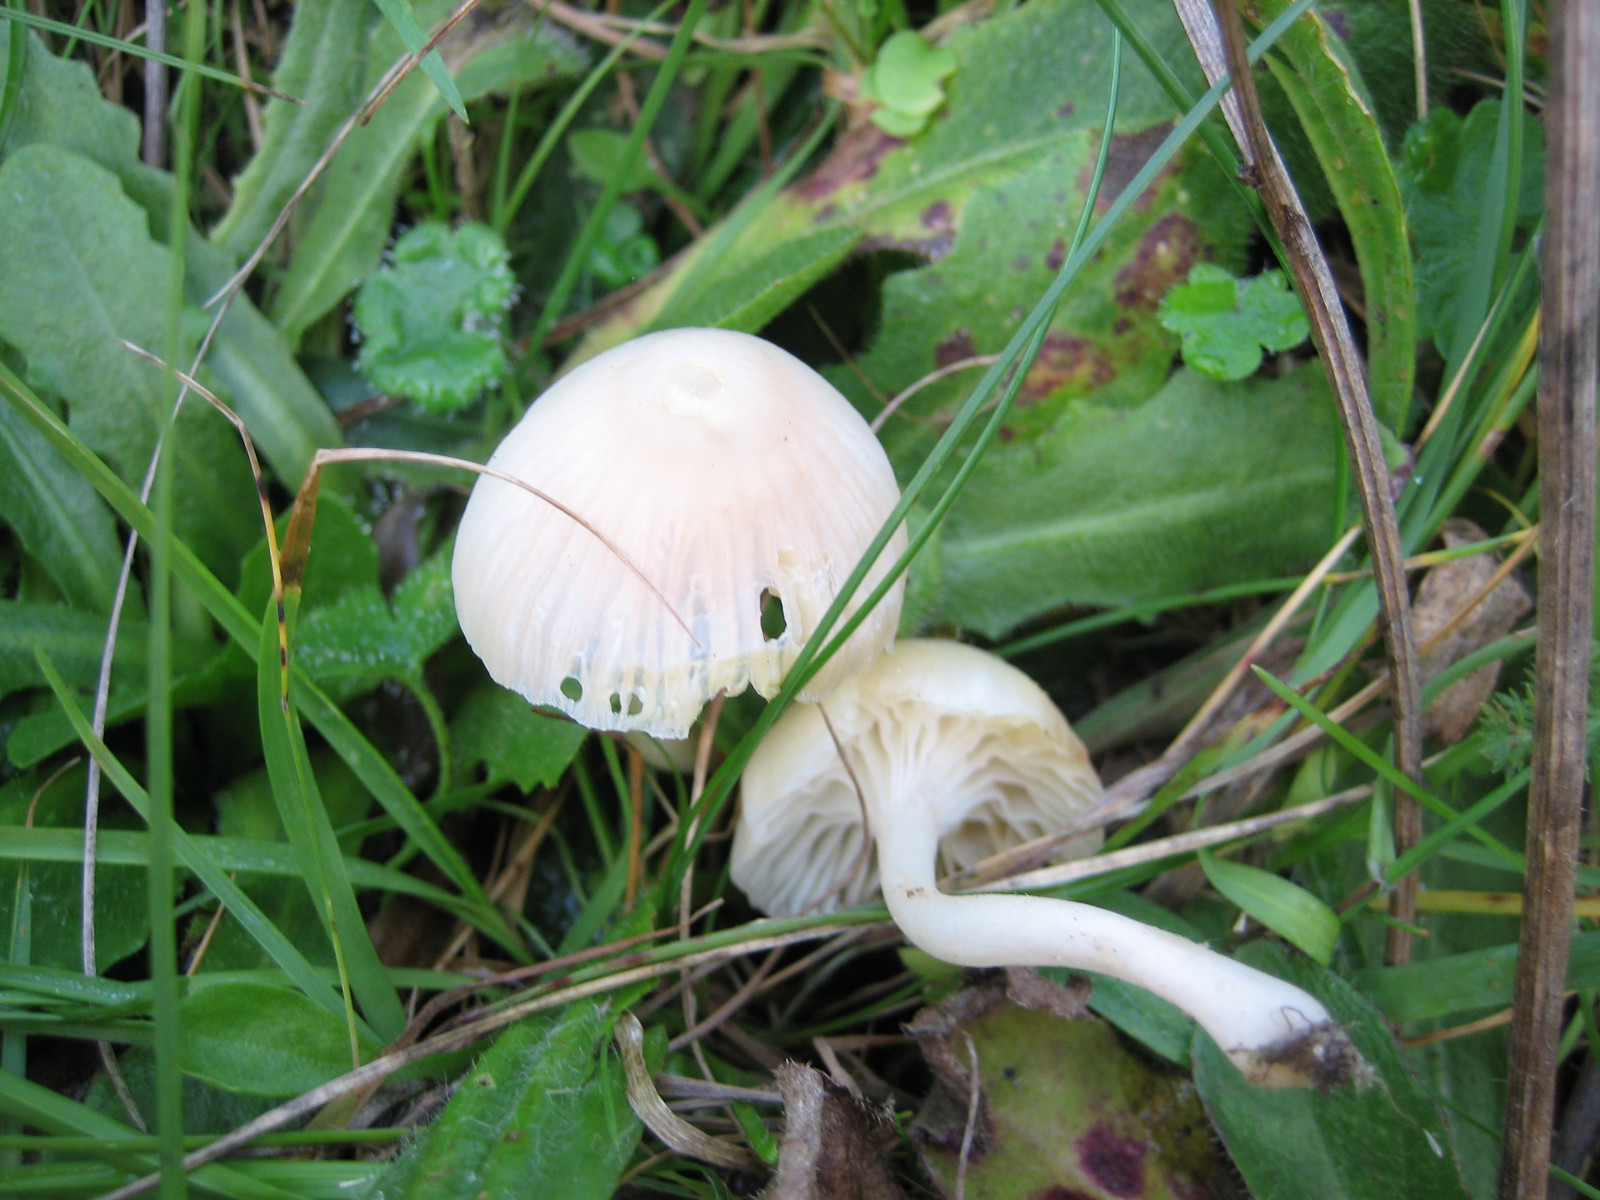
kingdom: Fungi
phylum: Basidiomycota
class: Agaricomycetes
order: Agaricales
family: Hygrophoraceae
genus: Cuphophyllus
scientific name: Cuphophyllus russocoriaceus
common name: ruslæder-vokshat
